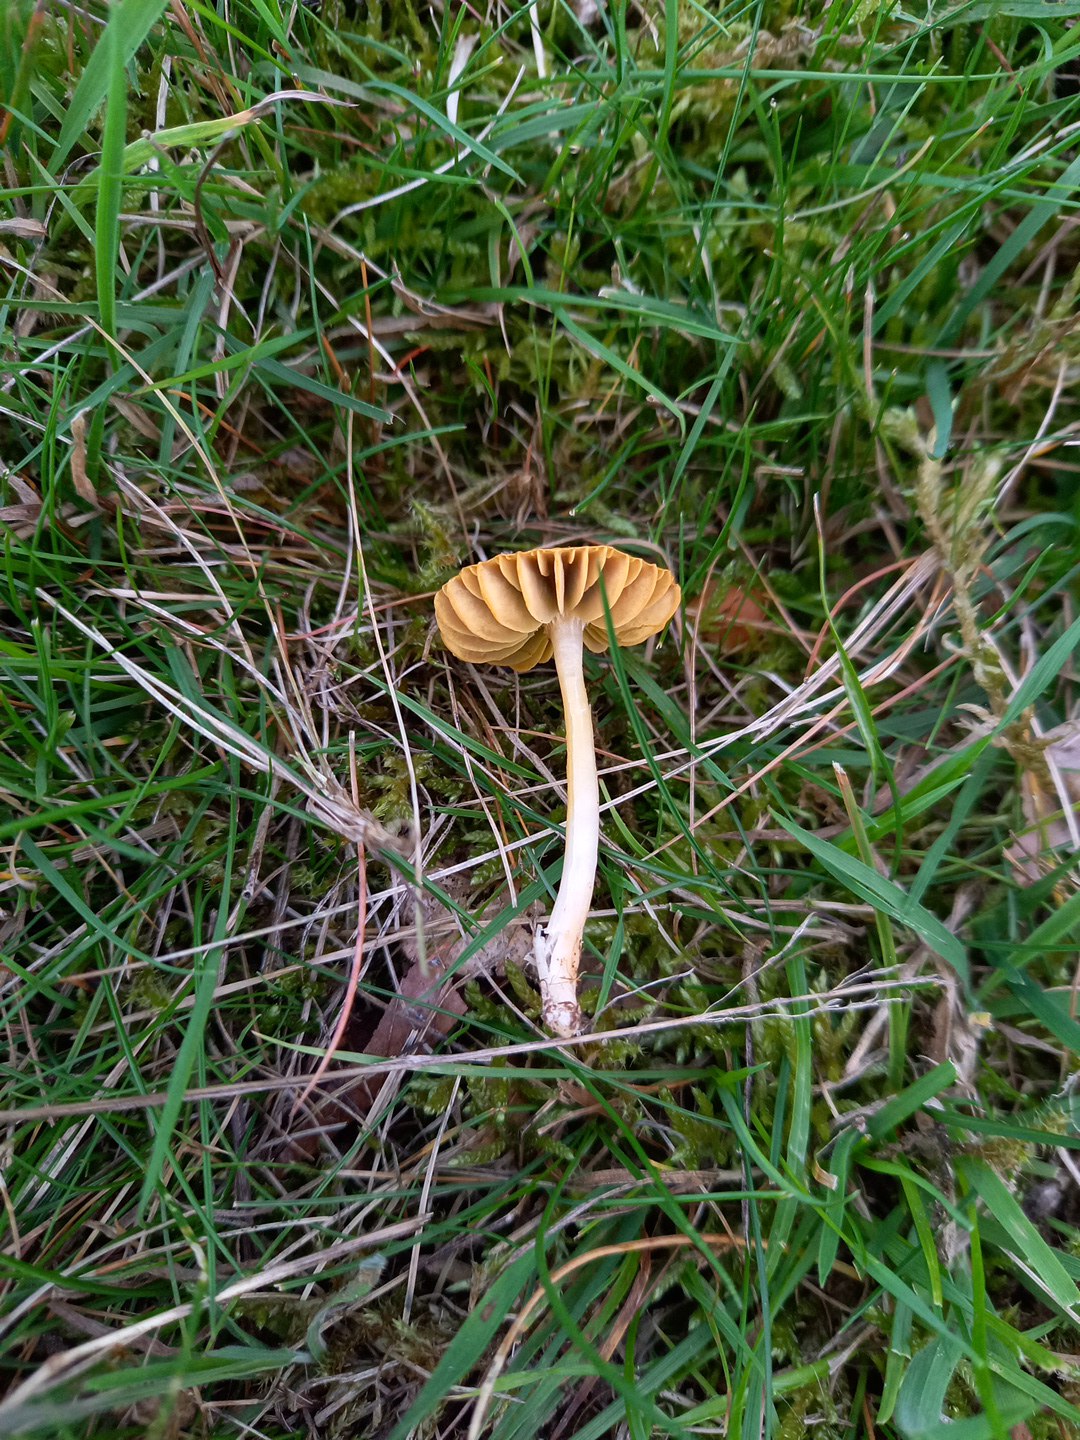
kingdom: Fungi
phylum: Basidiomycota
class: Agaricomycetes
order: Agaricales
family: Hygrophoraceae
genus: Gliophorus
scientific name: Gliophorus psittacinus
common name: papegøje-vokshat
